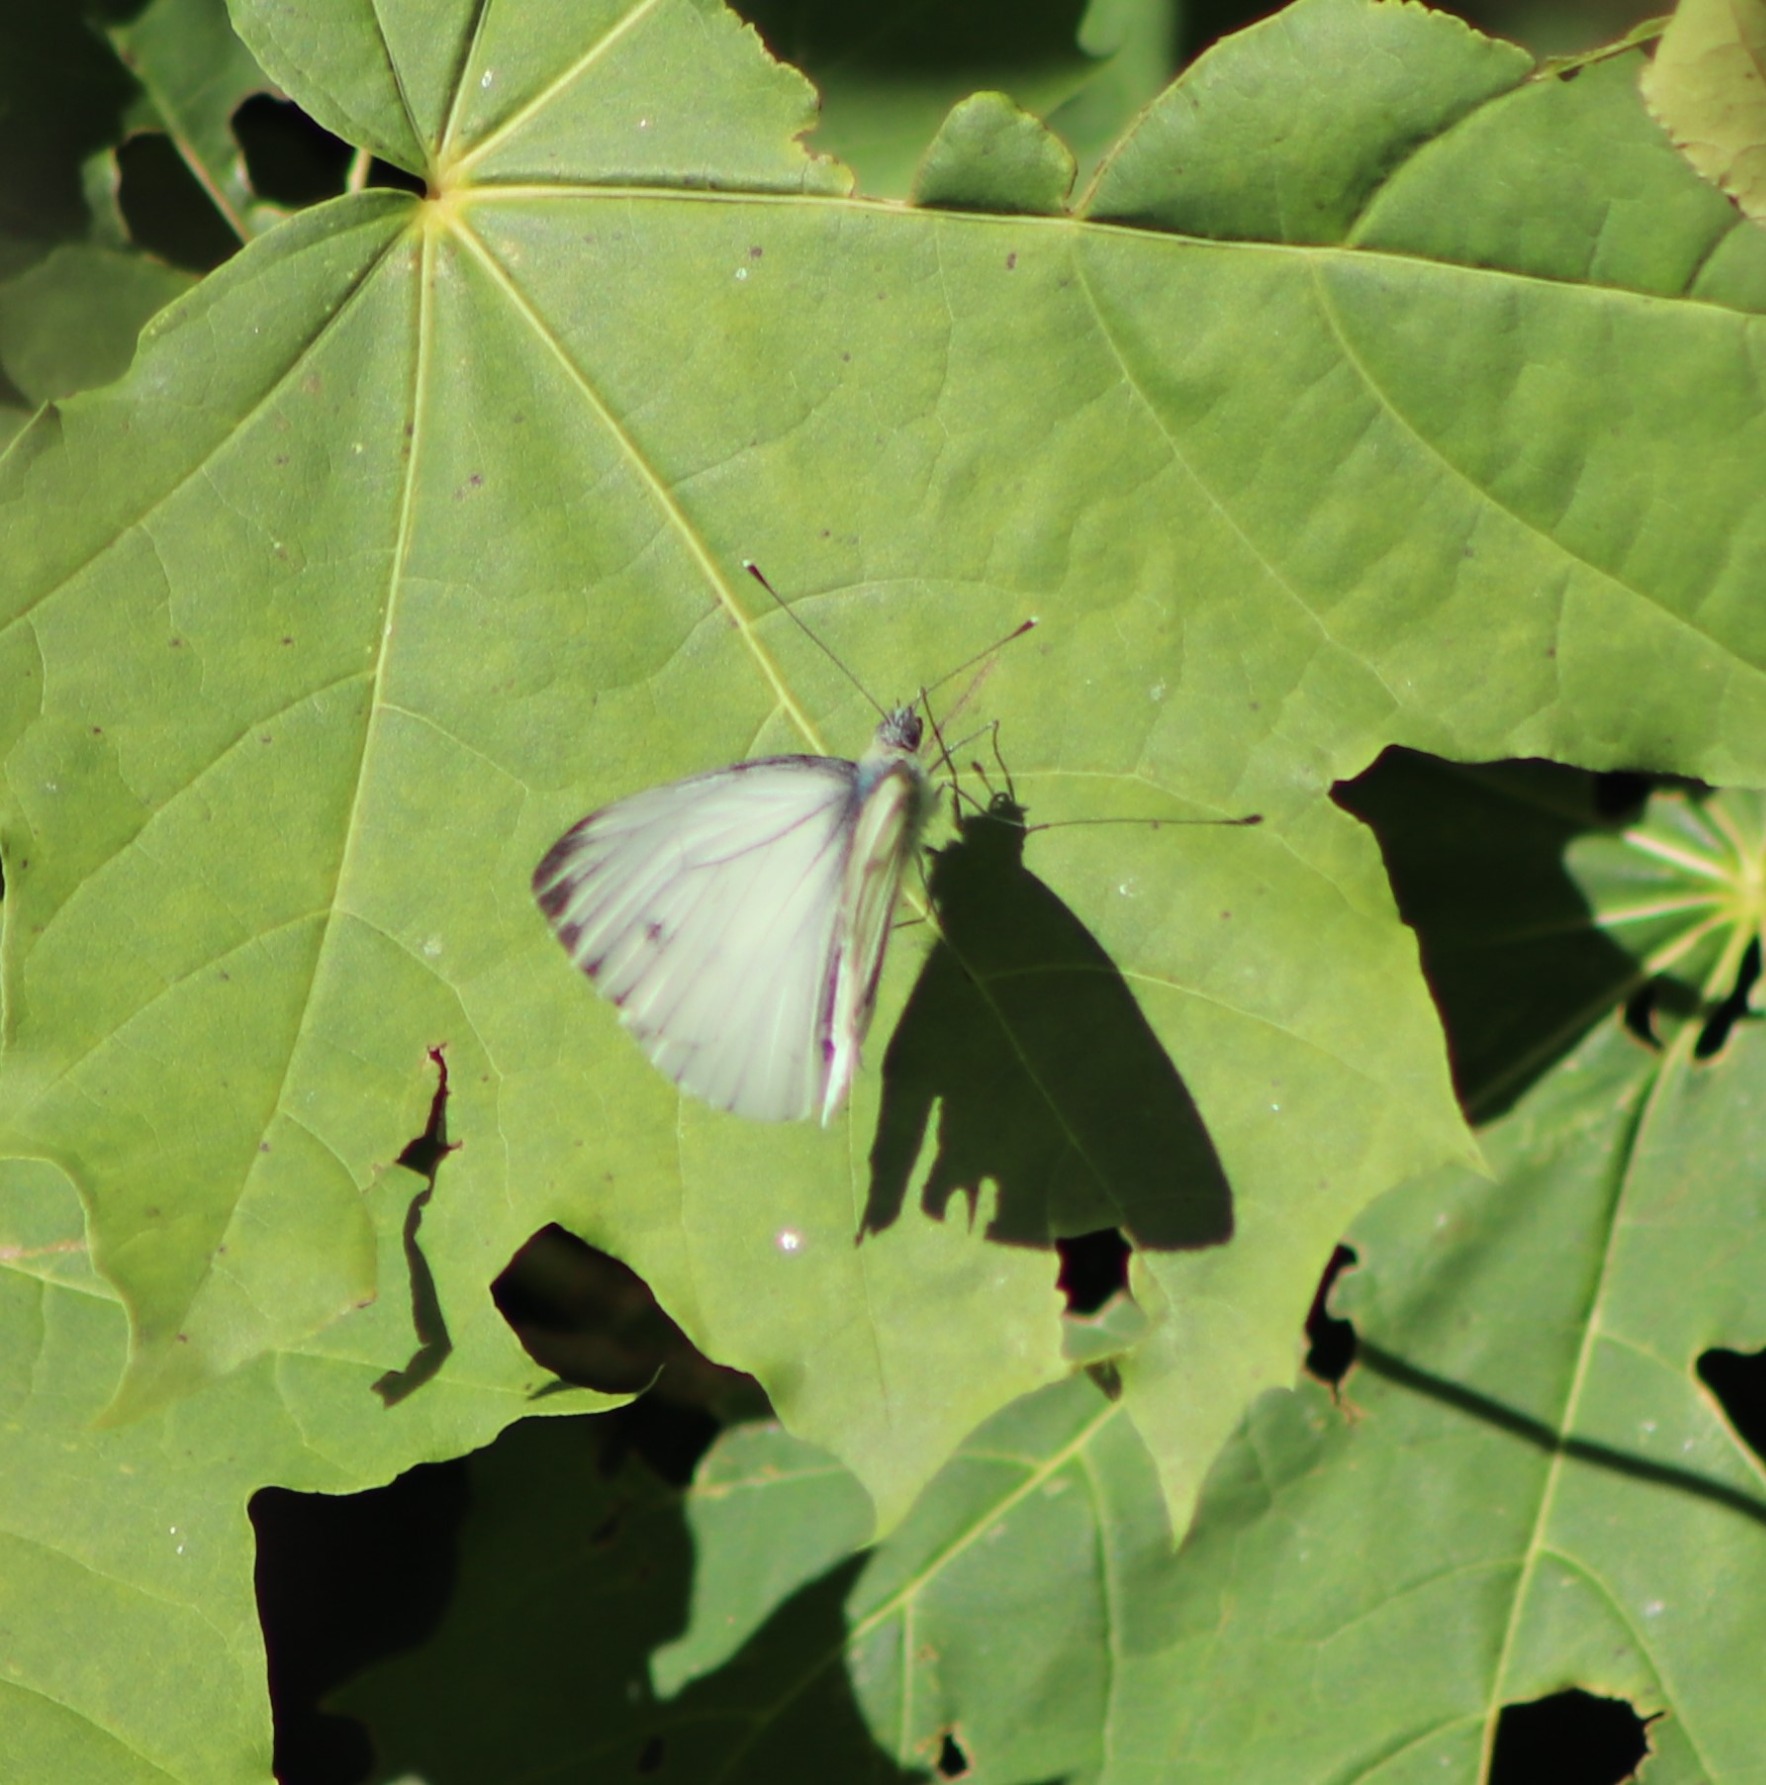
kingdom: Animalia
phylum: Arthropoda
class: Insecta
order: Lepidoptera
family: Pieridae
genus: Pieris
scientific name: Pieris napi
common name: Grønåret kålsommerfugl
